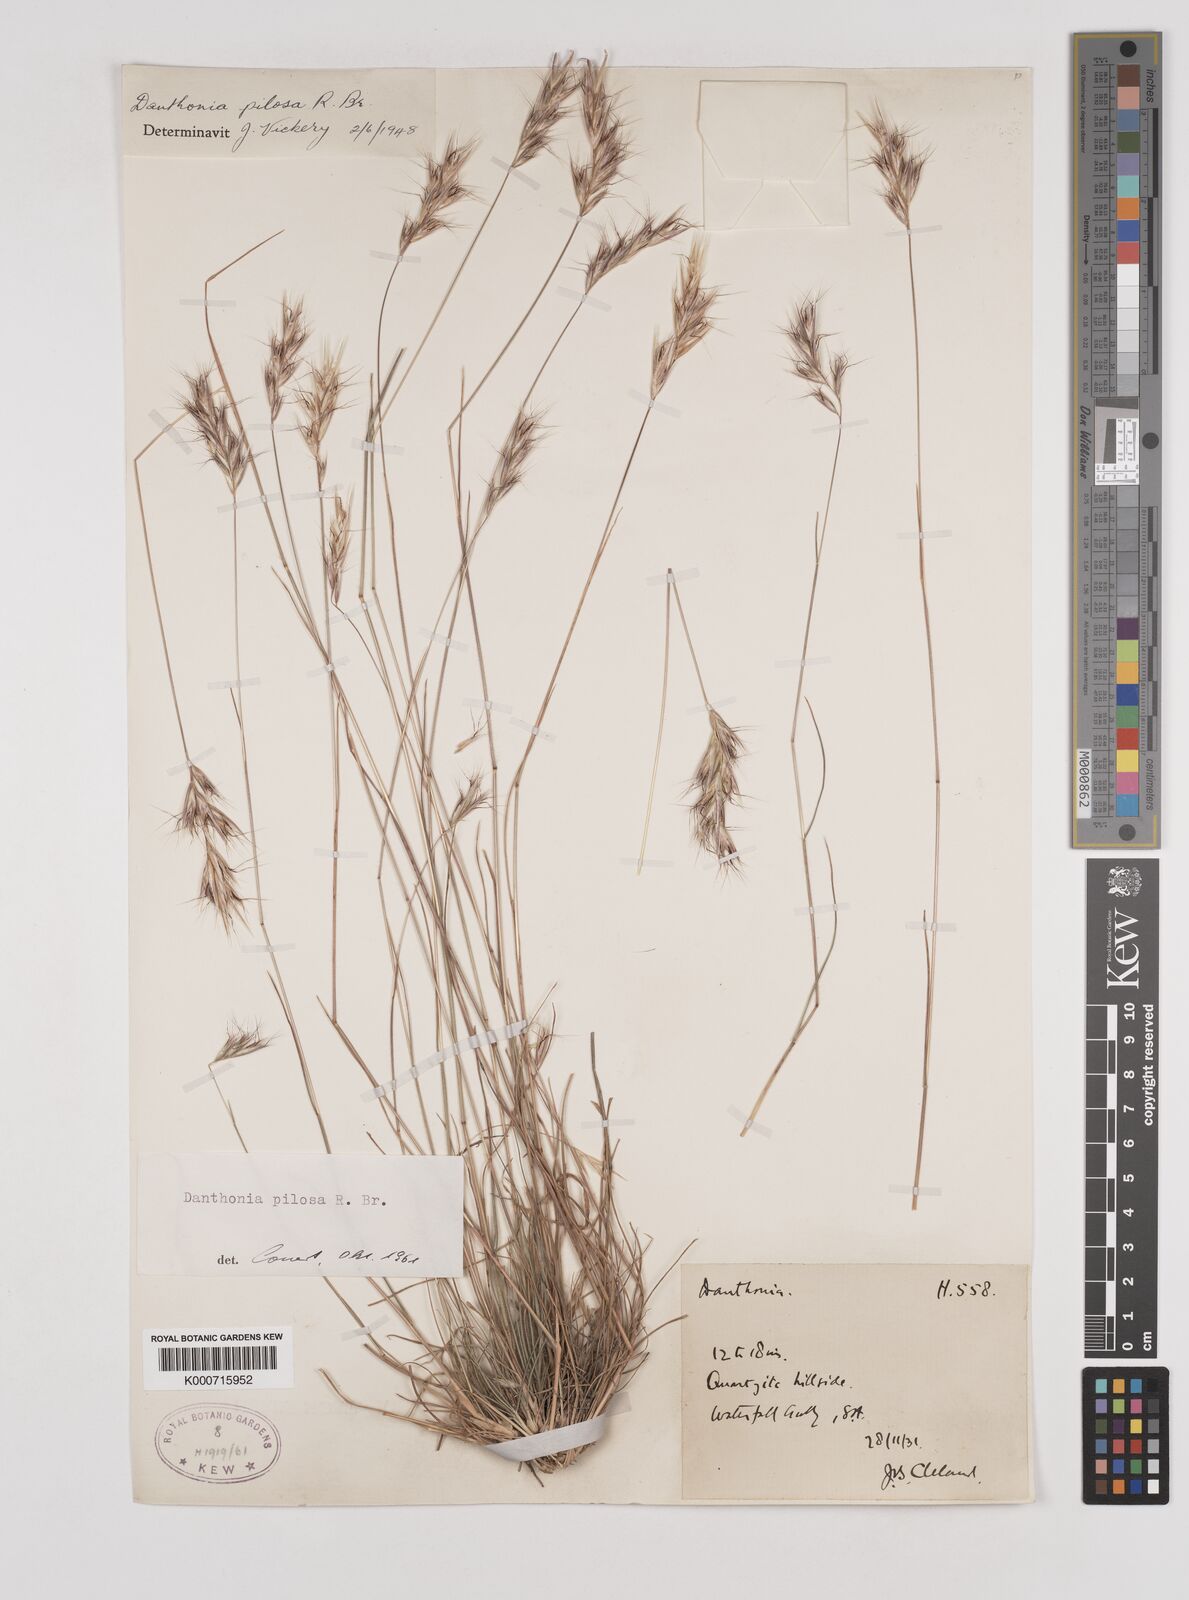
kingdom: Plantae
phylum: Tracheophyta
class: Liliopsida
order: Poales
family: Poaceae
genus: Rytidosperma
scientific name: Rytidosperma pilosum
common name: Hairy wallaby grass
